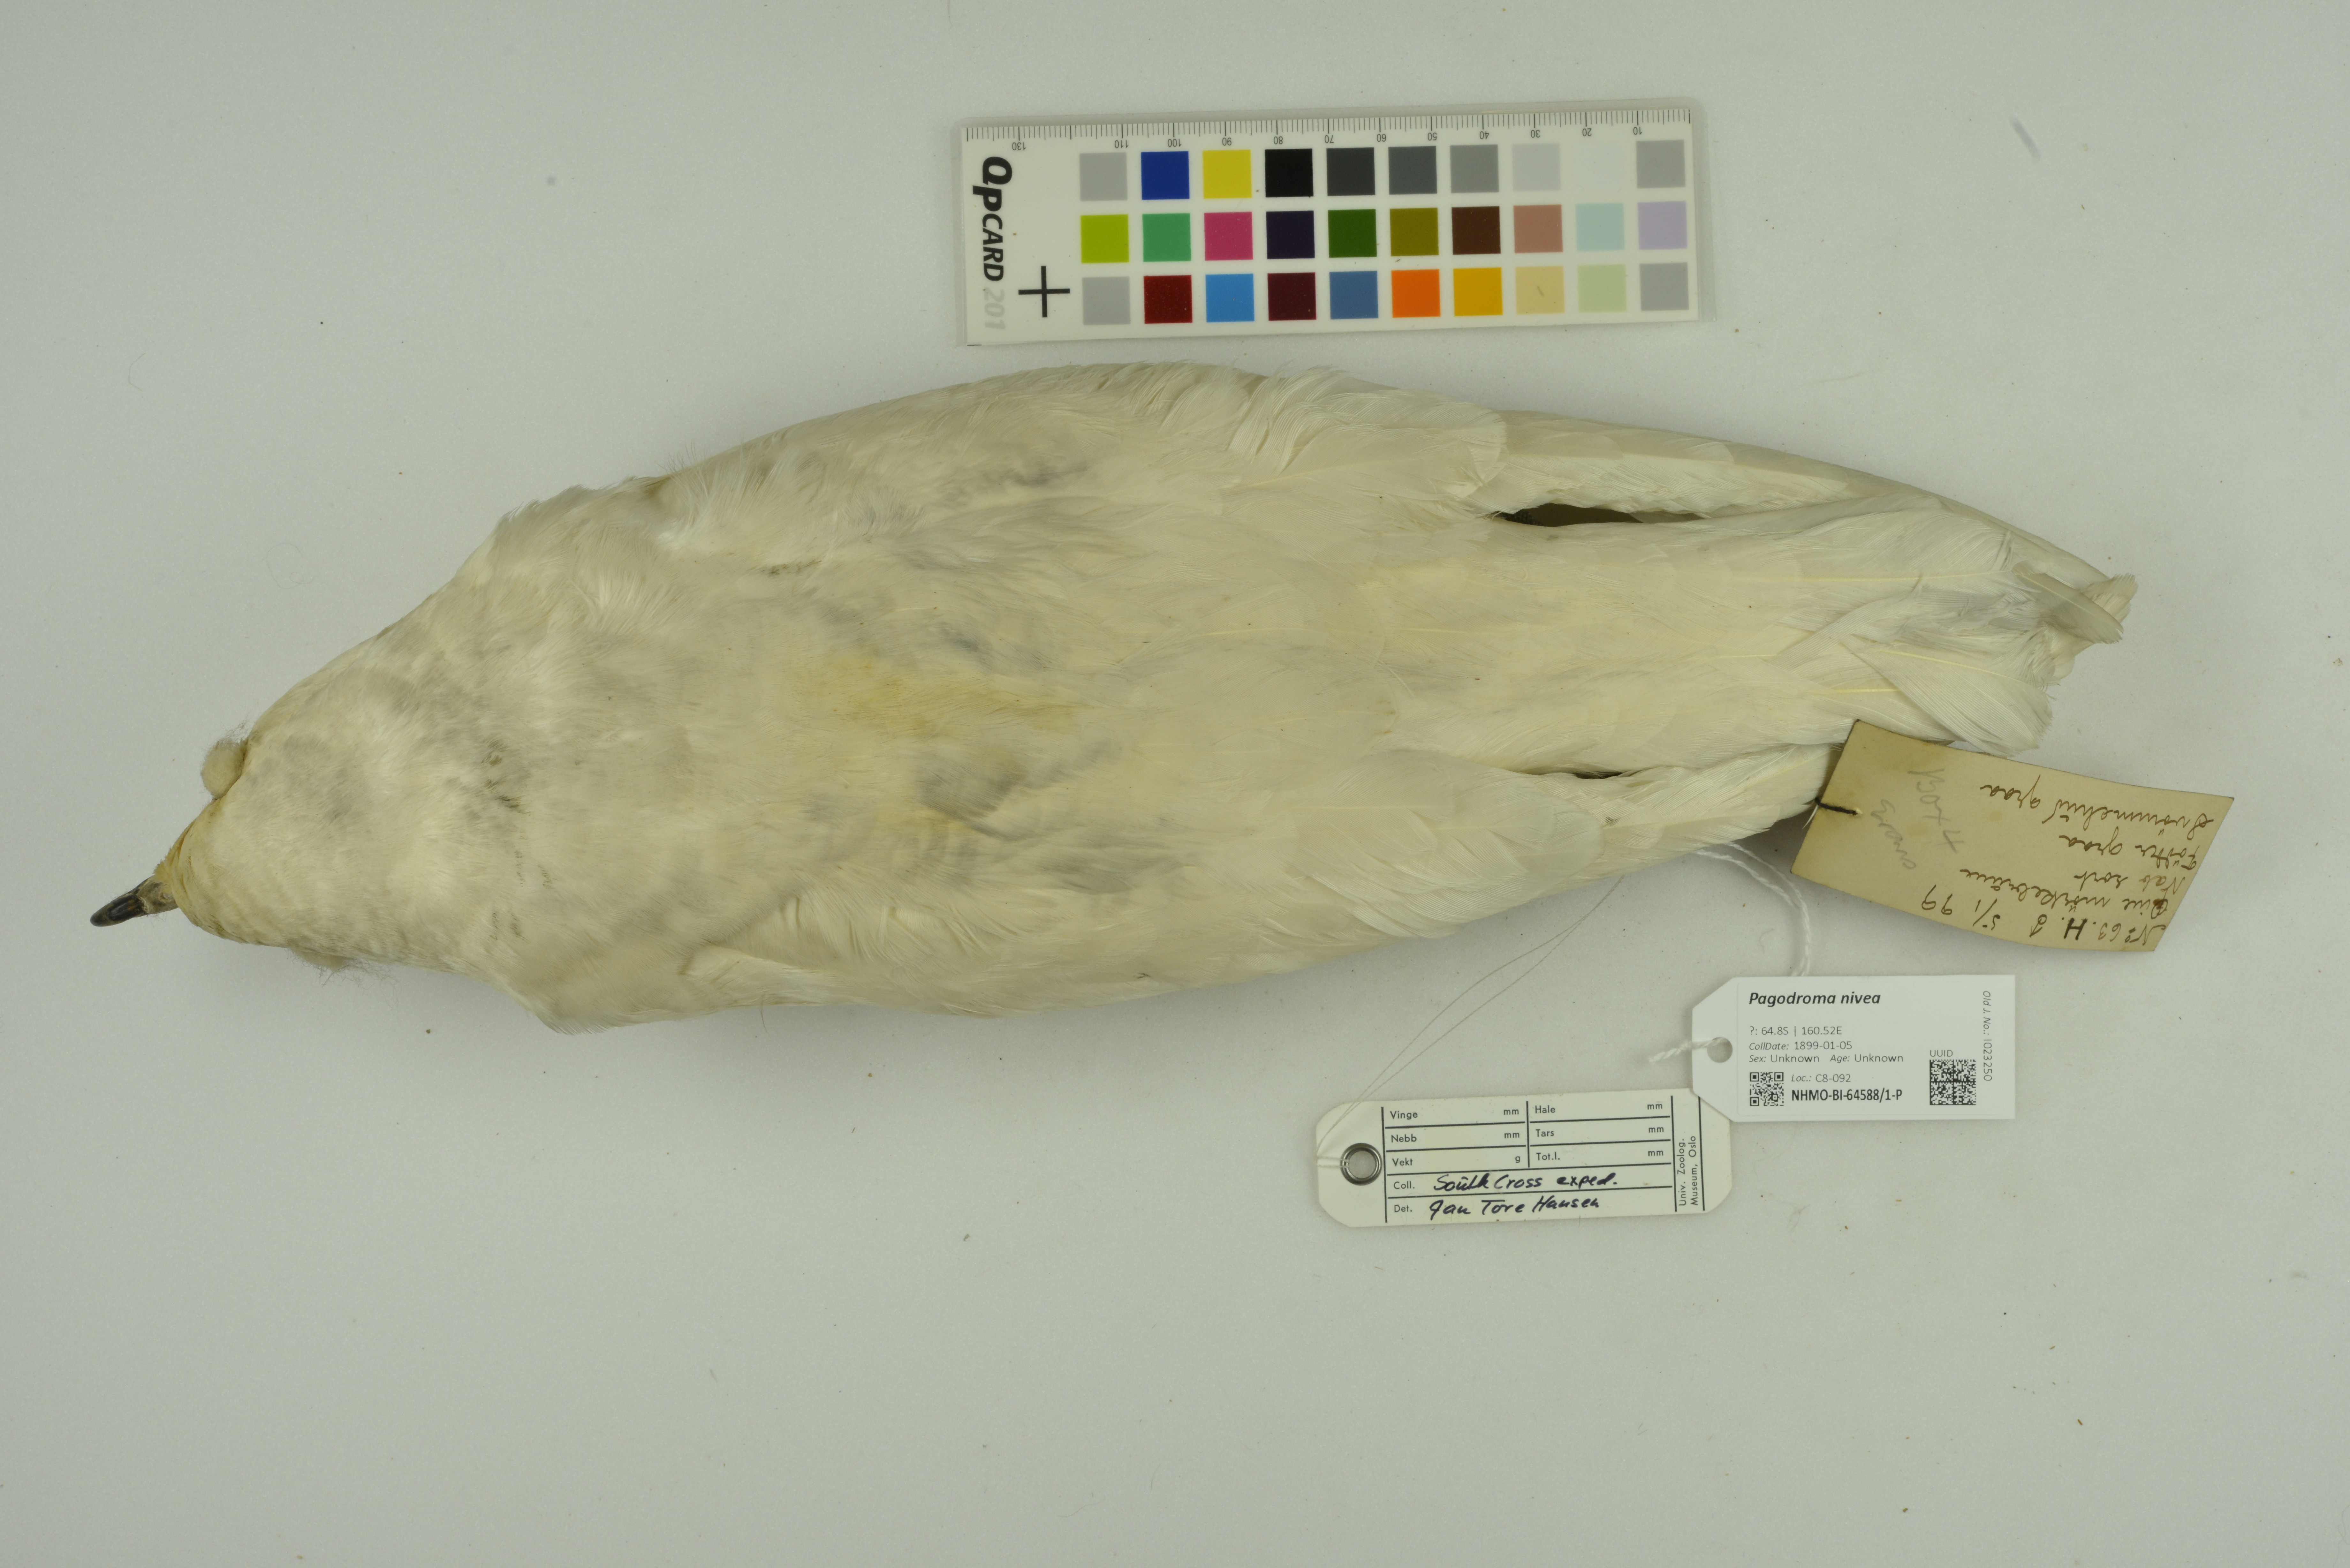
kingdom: Animalia
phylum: Chordata
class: Aves
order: Procellariiformes
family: Procellariidae
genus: Pagodroma
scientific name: Pagodroma nivea
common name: Snow petrel
